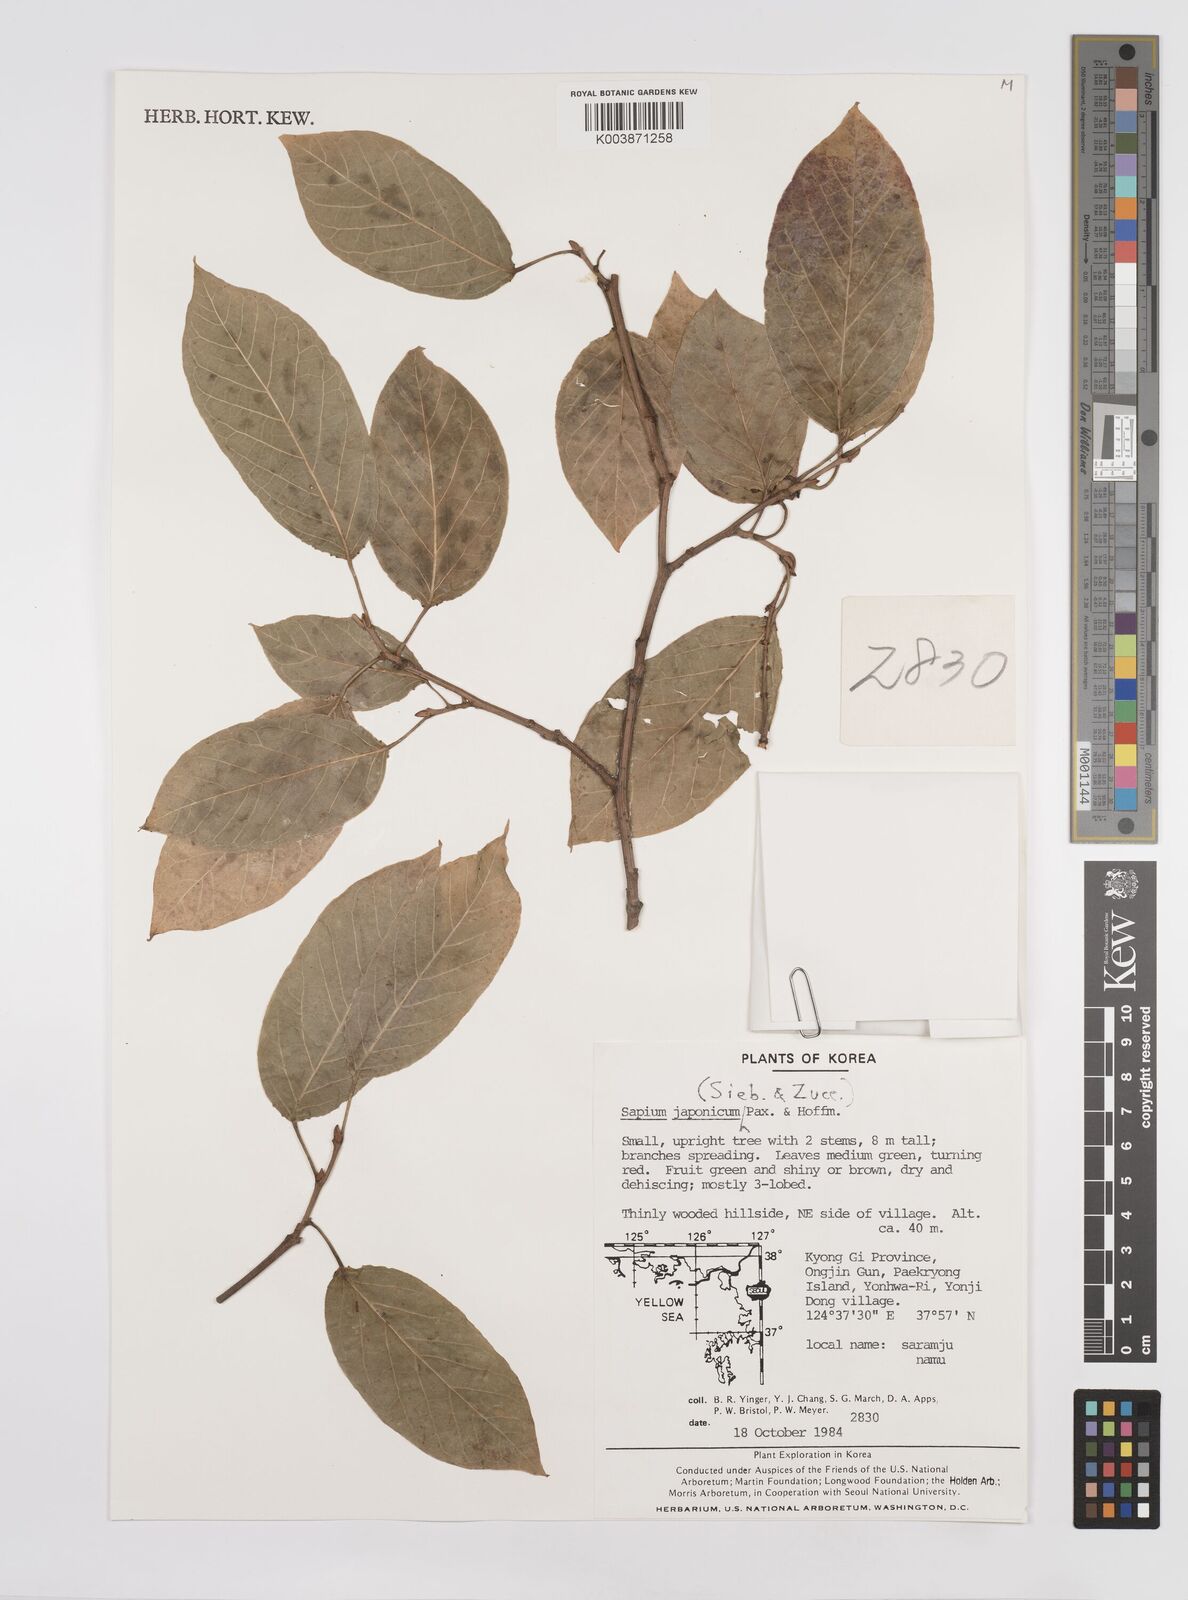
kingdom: Plantae
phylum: Tracheophyta
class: Magnoliopsida
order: Malpighiales
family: Euphorbiaceae
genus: Neoshirakia
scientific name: Neoshirakia japonica
